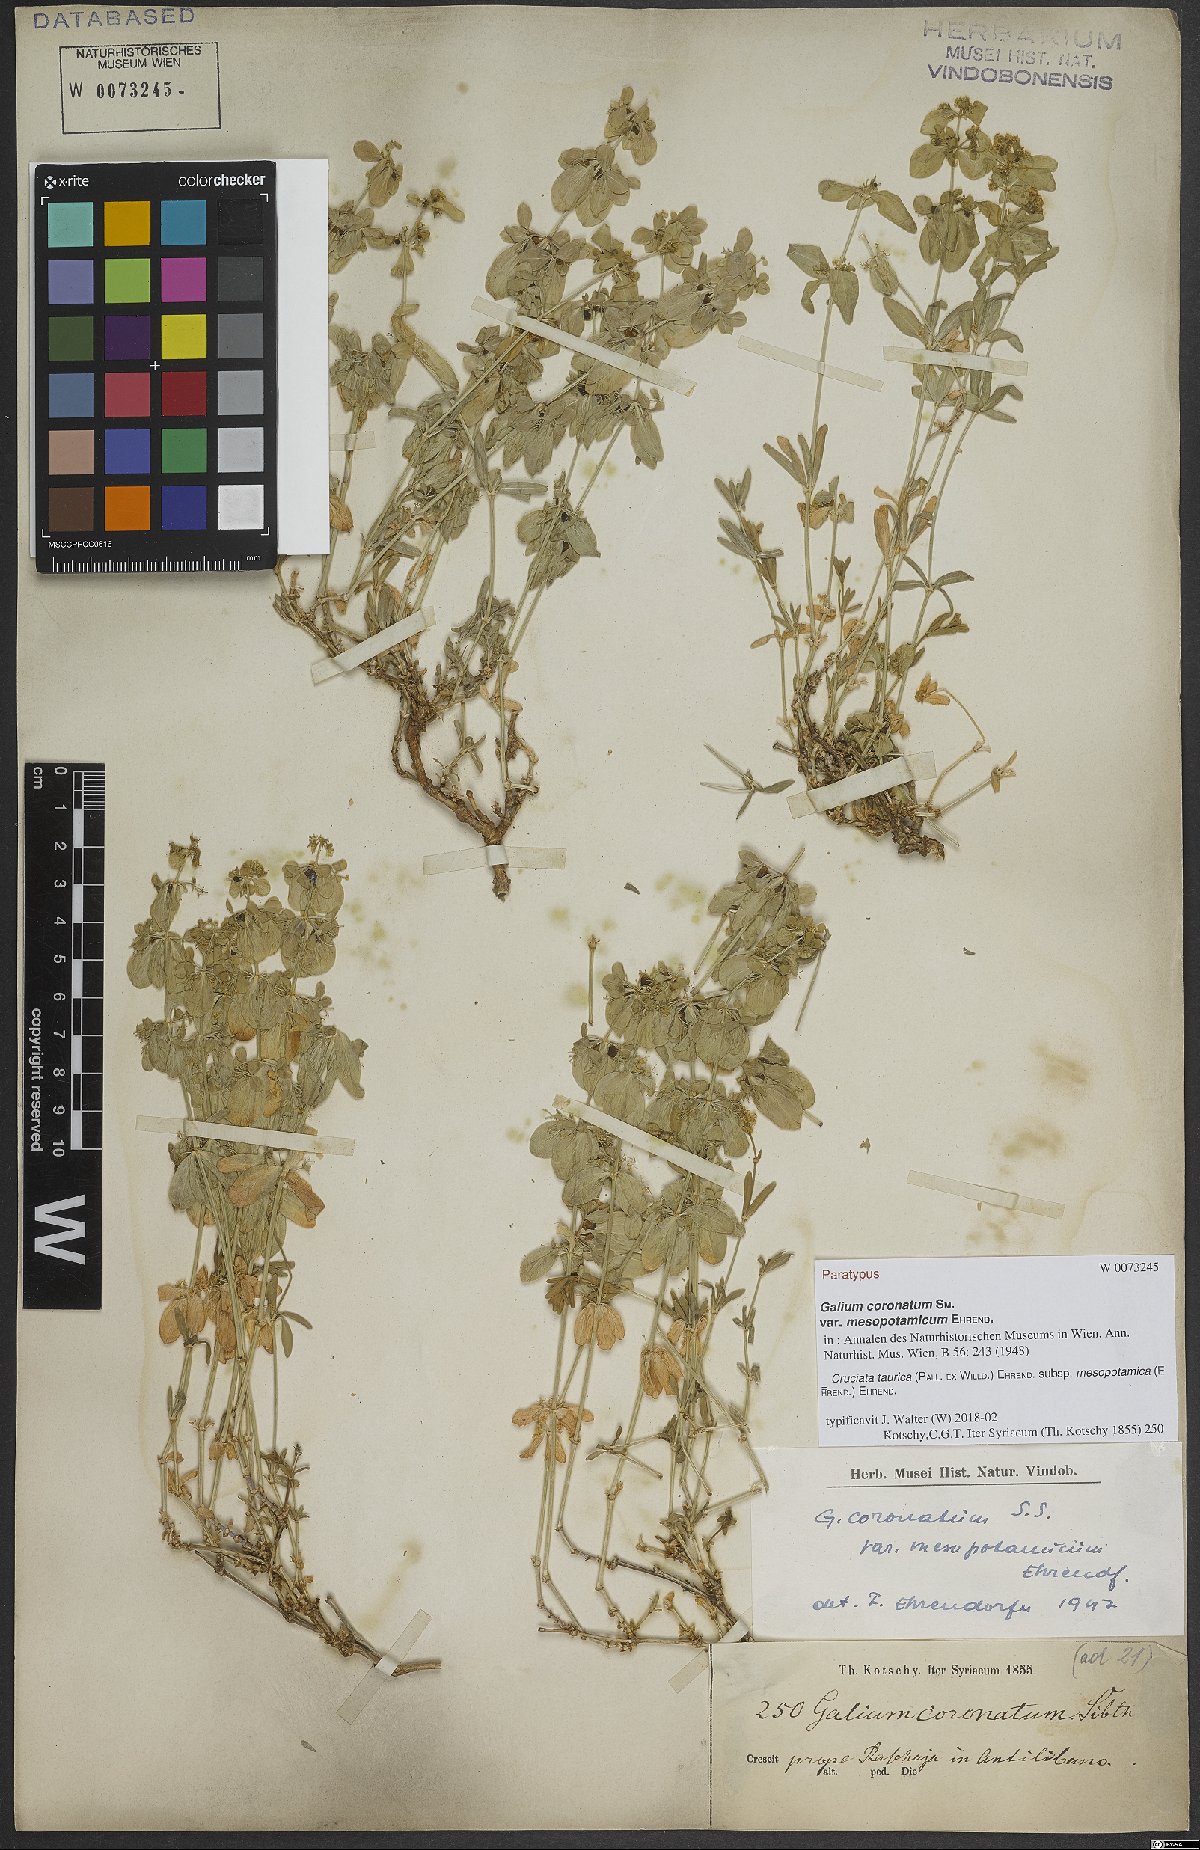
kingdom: Plantae
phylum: Tracheophyta
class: Magnoliopsida
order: Gentianales
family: Rubiaceae
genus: Cruciata
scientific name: Cruciata taurica
